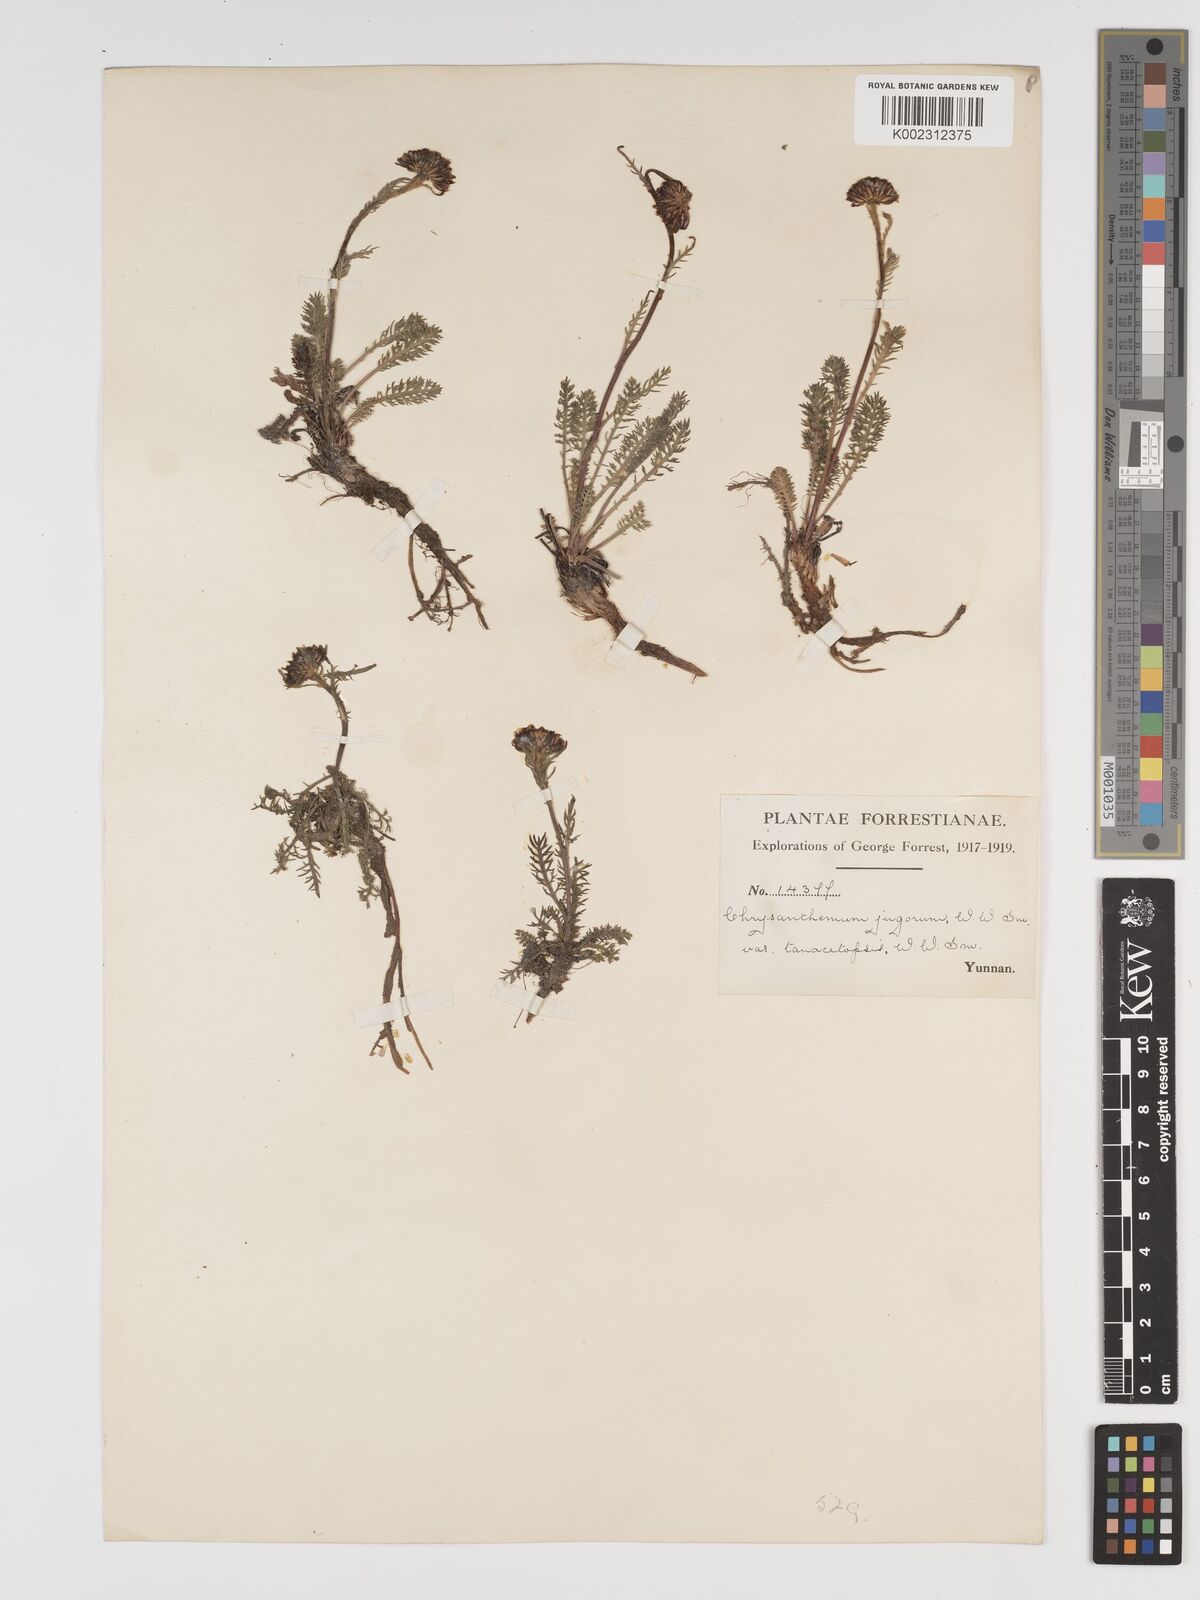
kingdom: Plantae
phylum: Tracheophyta
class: Magnoliopsida
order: Asterales
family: Asteraceae
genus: Tanacetum
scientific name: Tanacetum tatsienense
